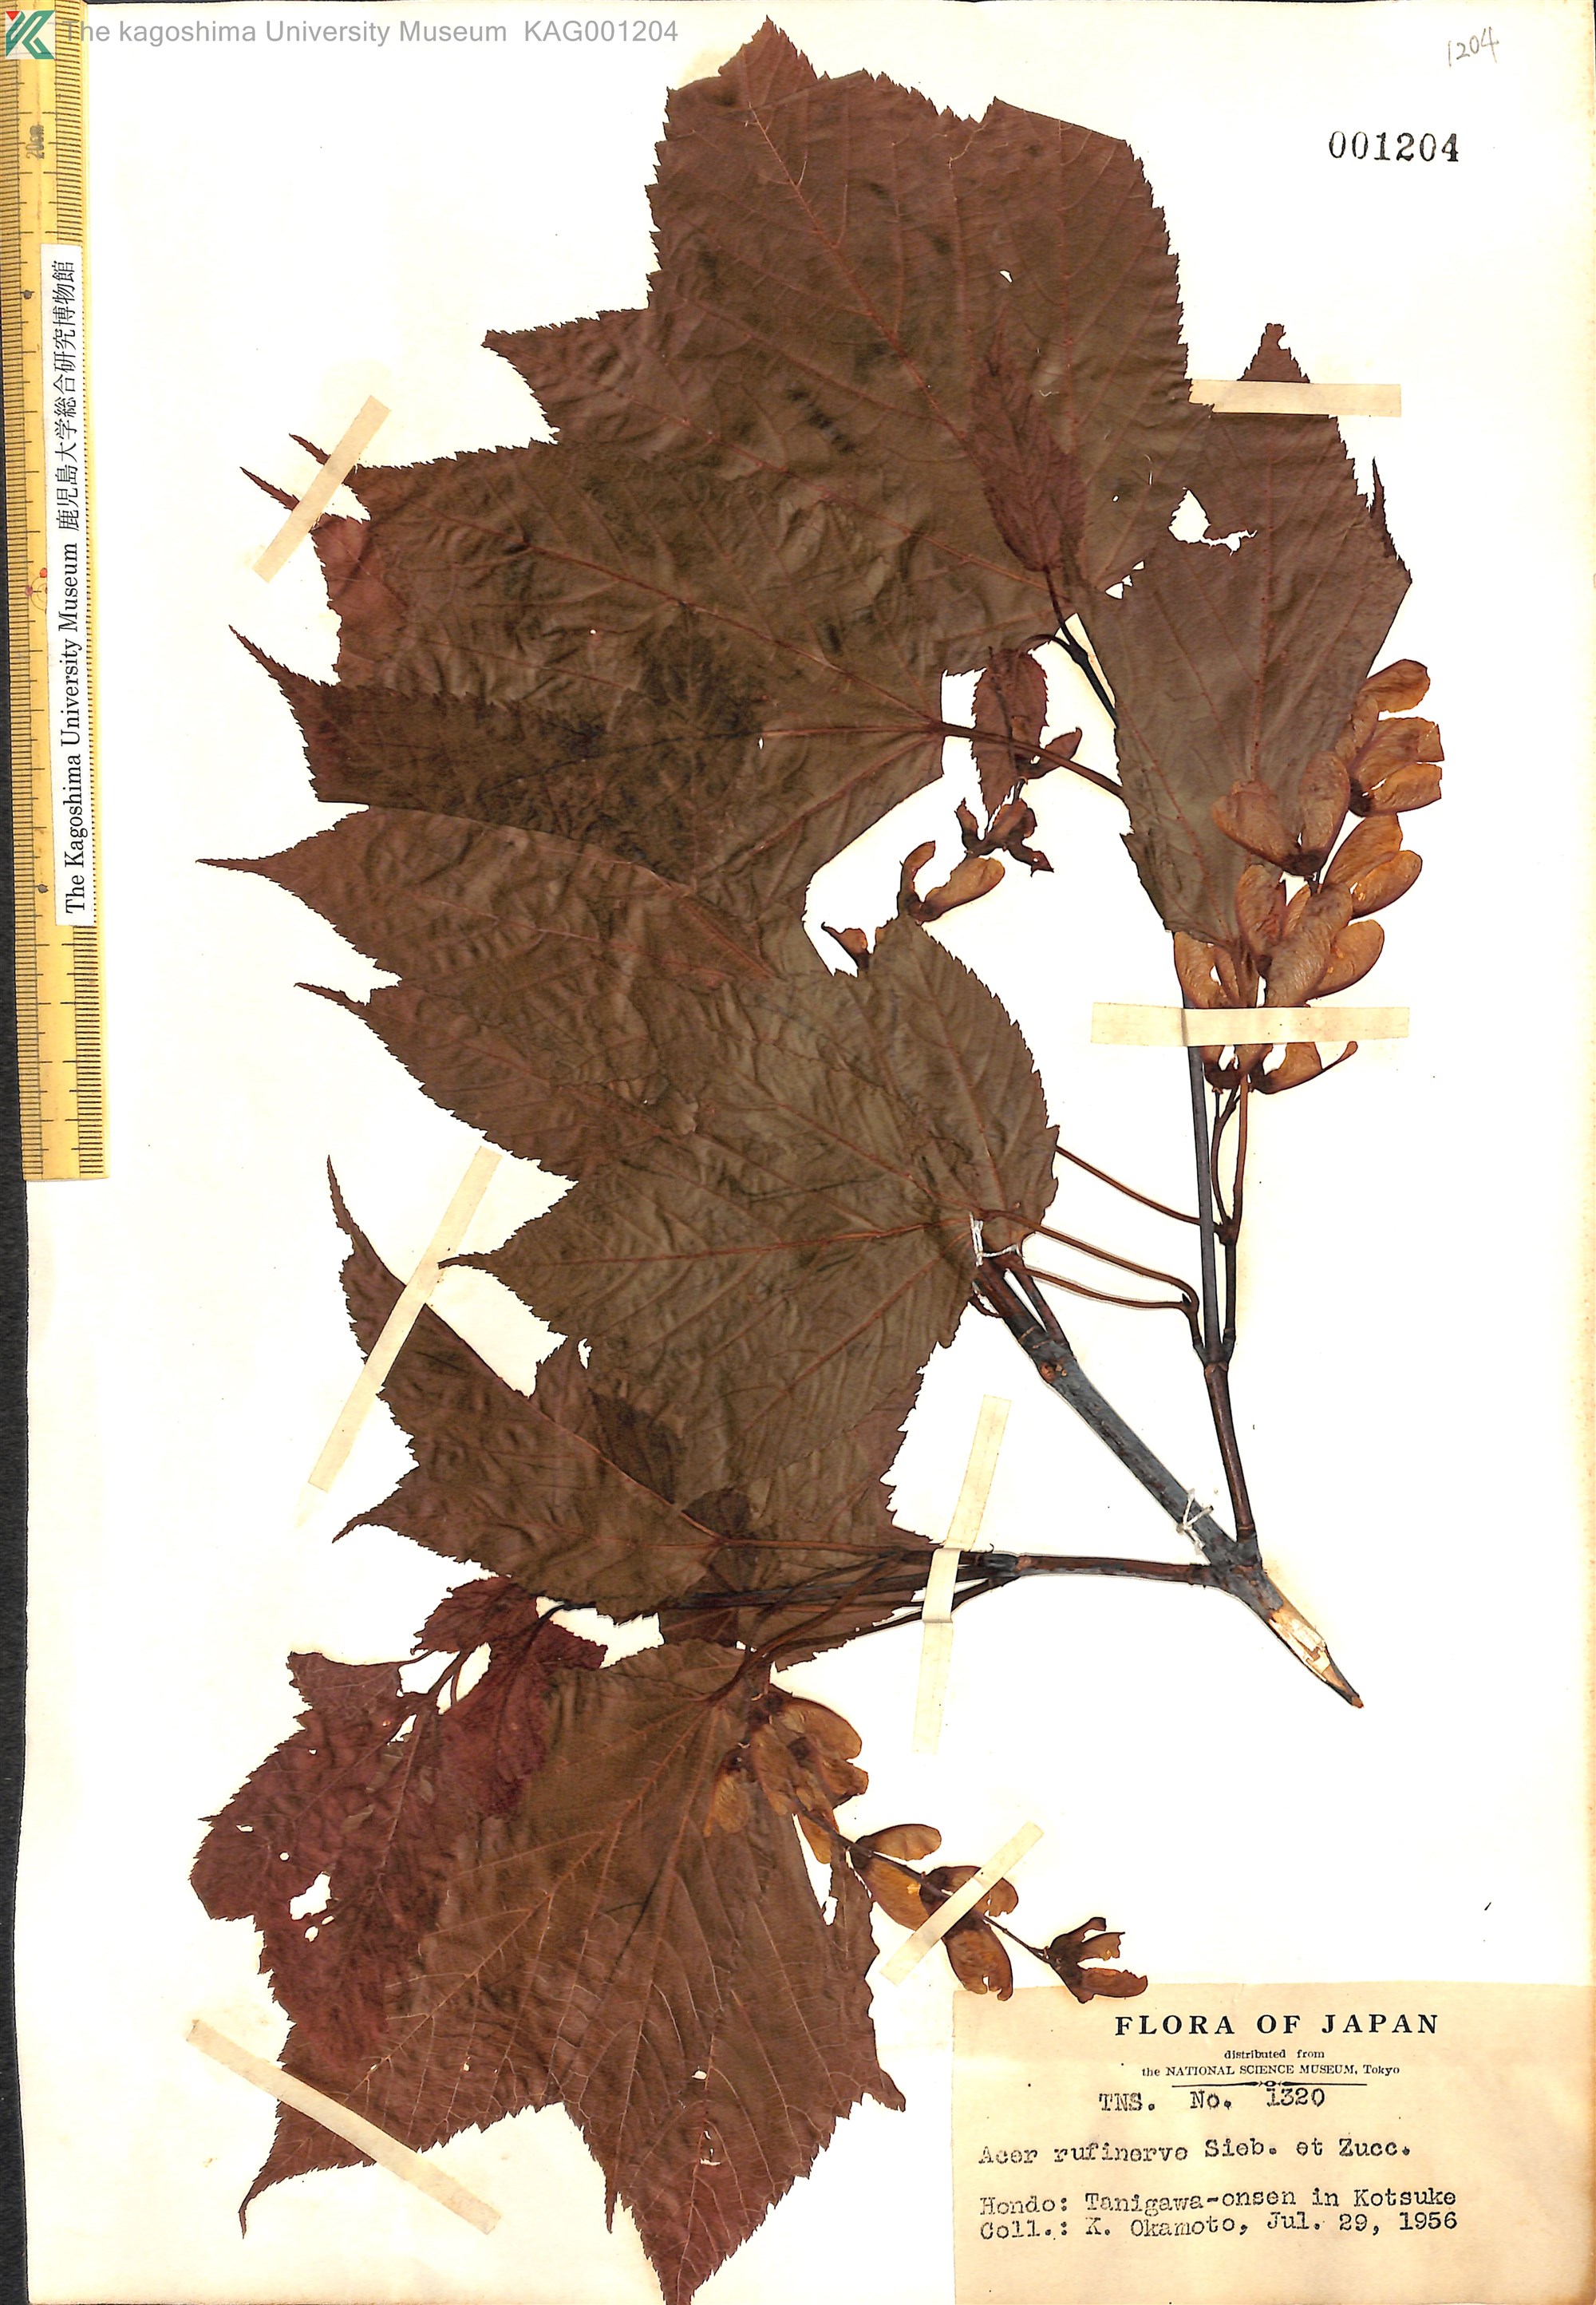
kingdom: Plantae
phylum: Tracheophyta
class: Magnoliopsida
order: Sapindales
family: Sapindaceae
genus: Acer
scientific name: Acer rufinerve
